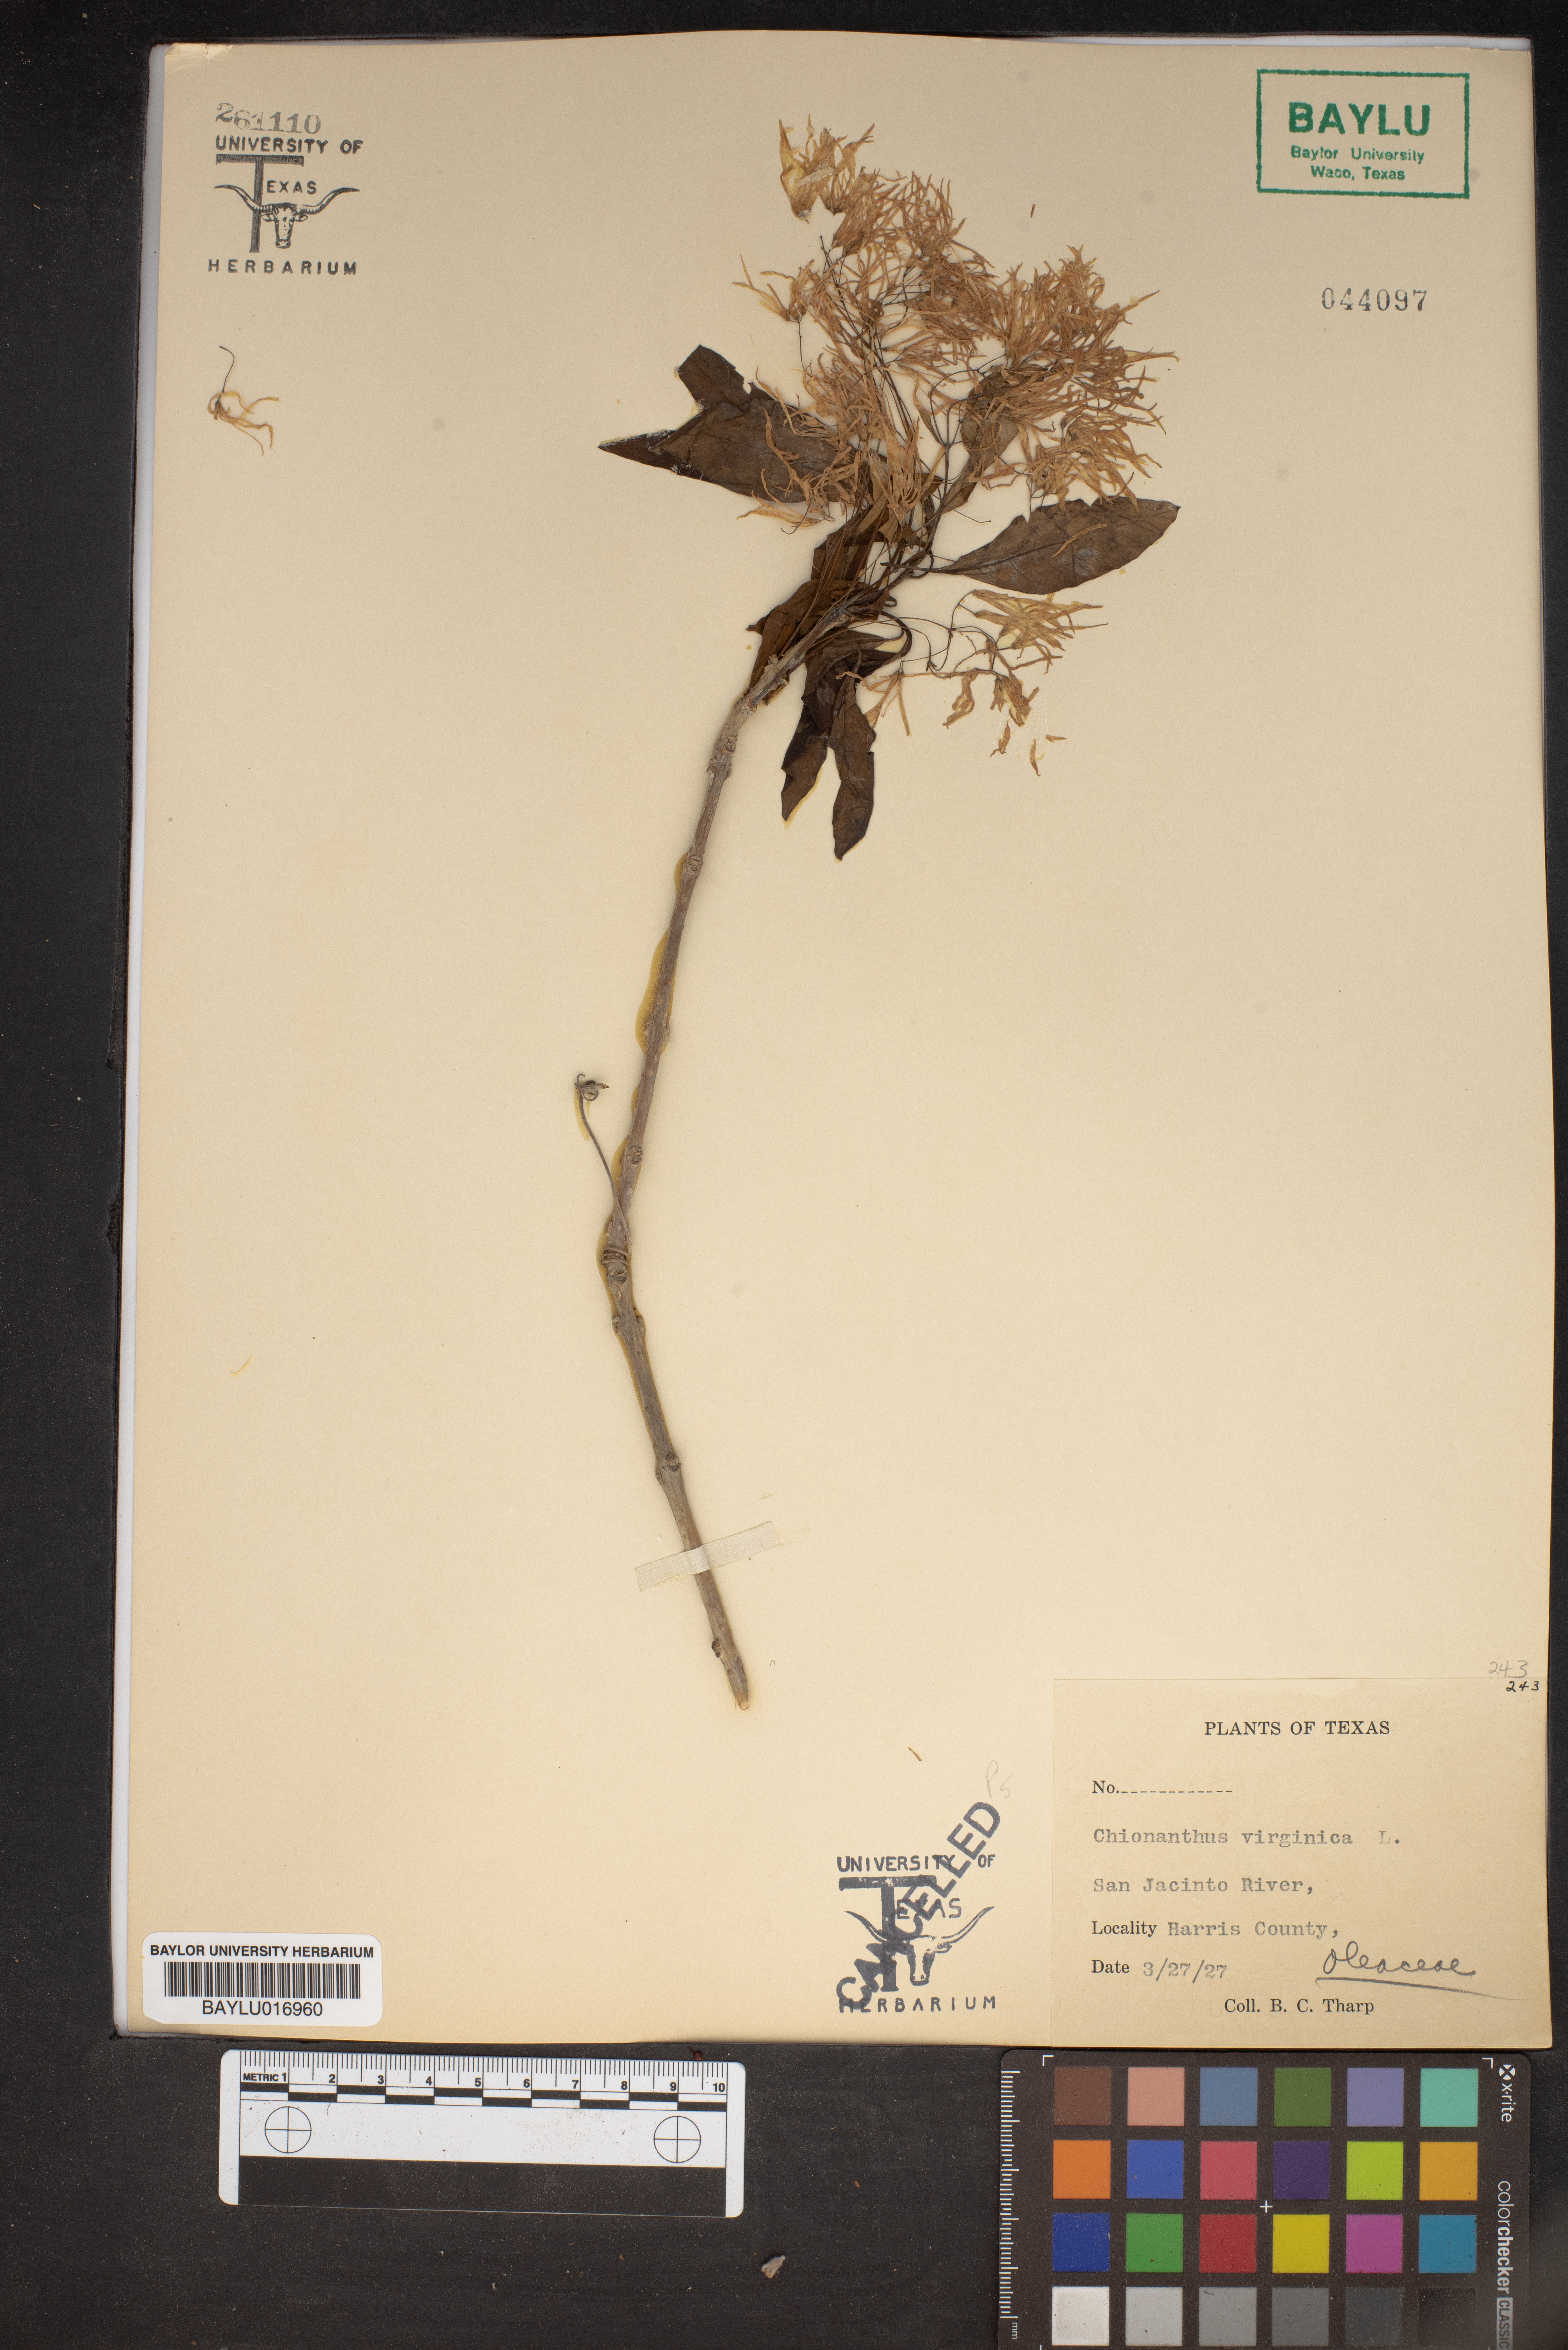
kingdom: Plantae
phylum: Tracheophyta
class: Magnoliopsida
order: Lamiales
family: Oleaceae
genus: Chionanthus
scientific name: Chionanthus virginicus
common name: American fringetree
